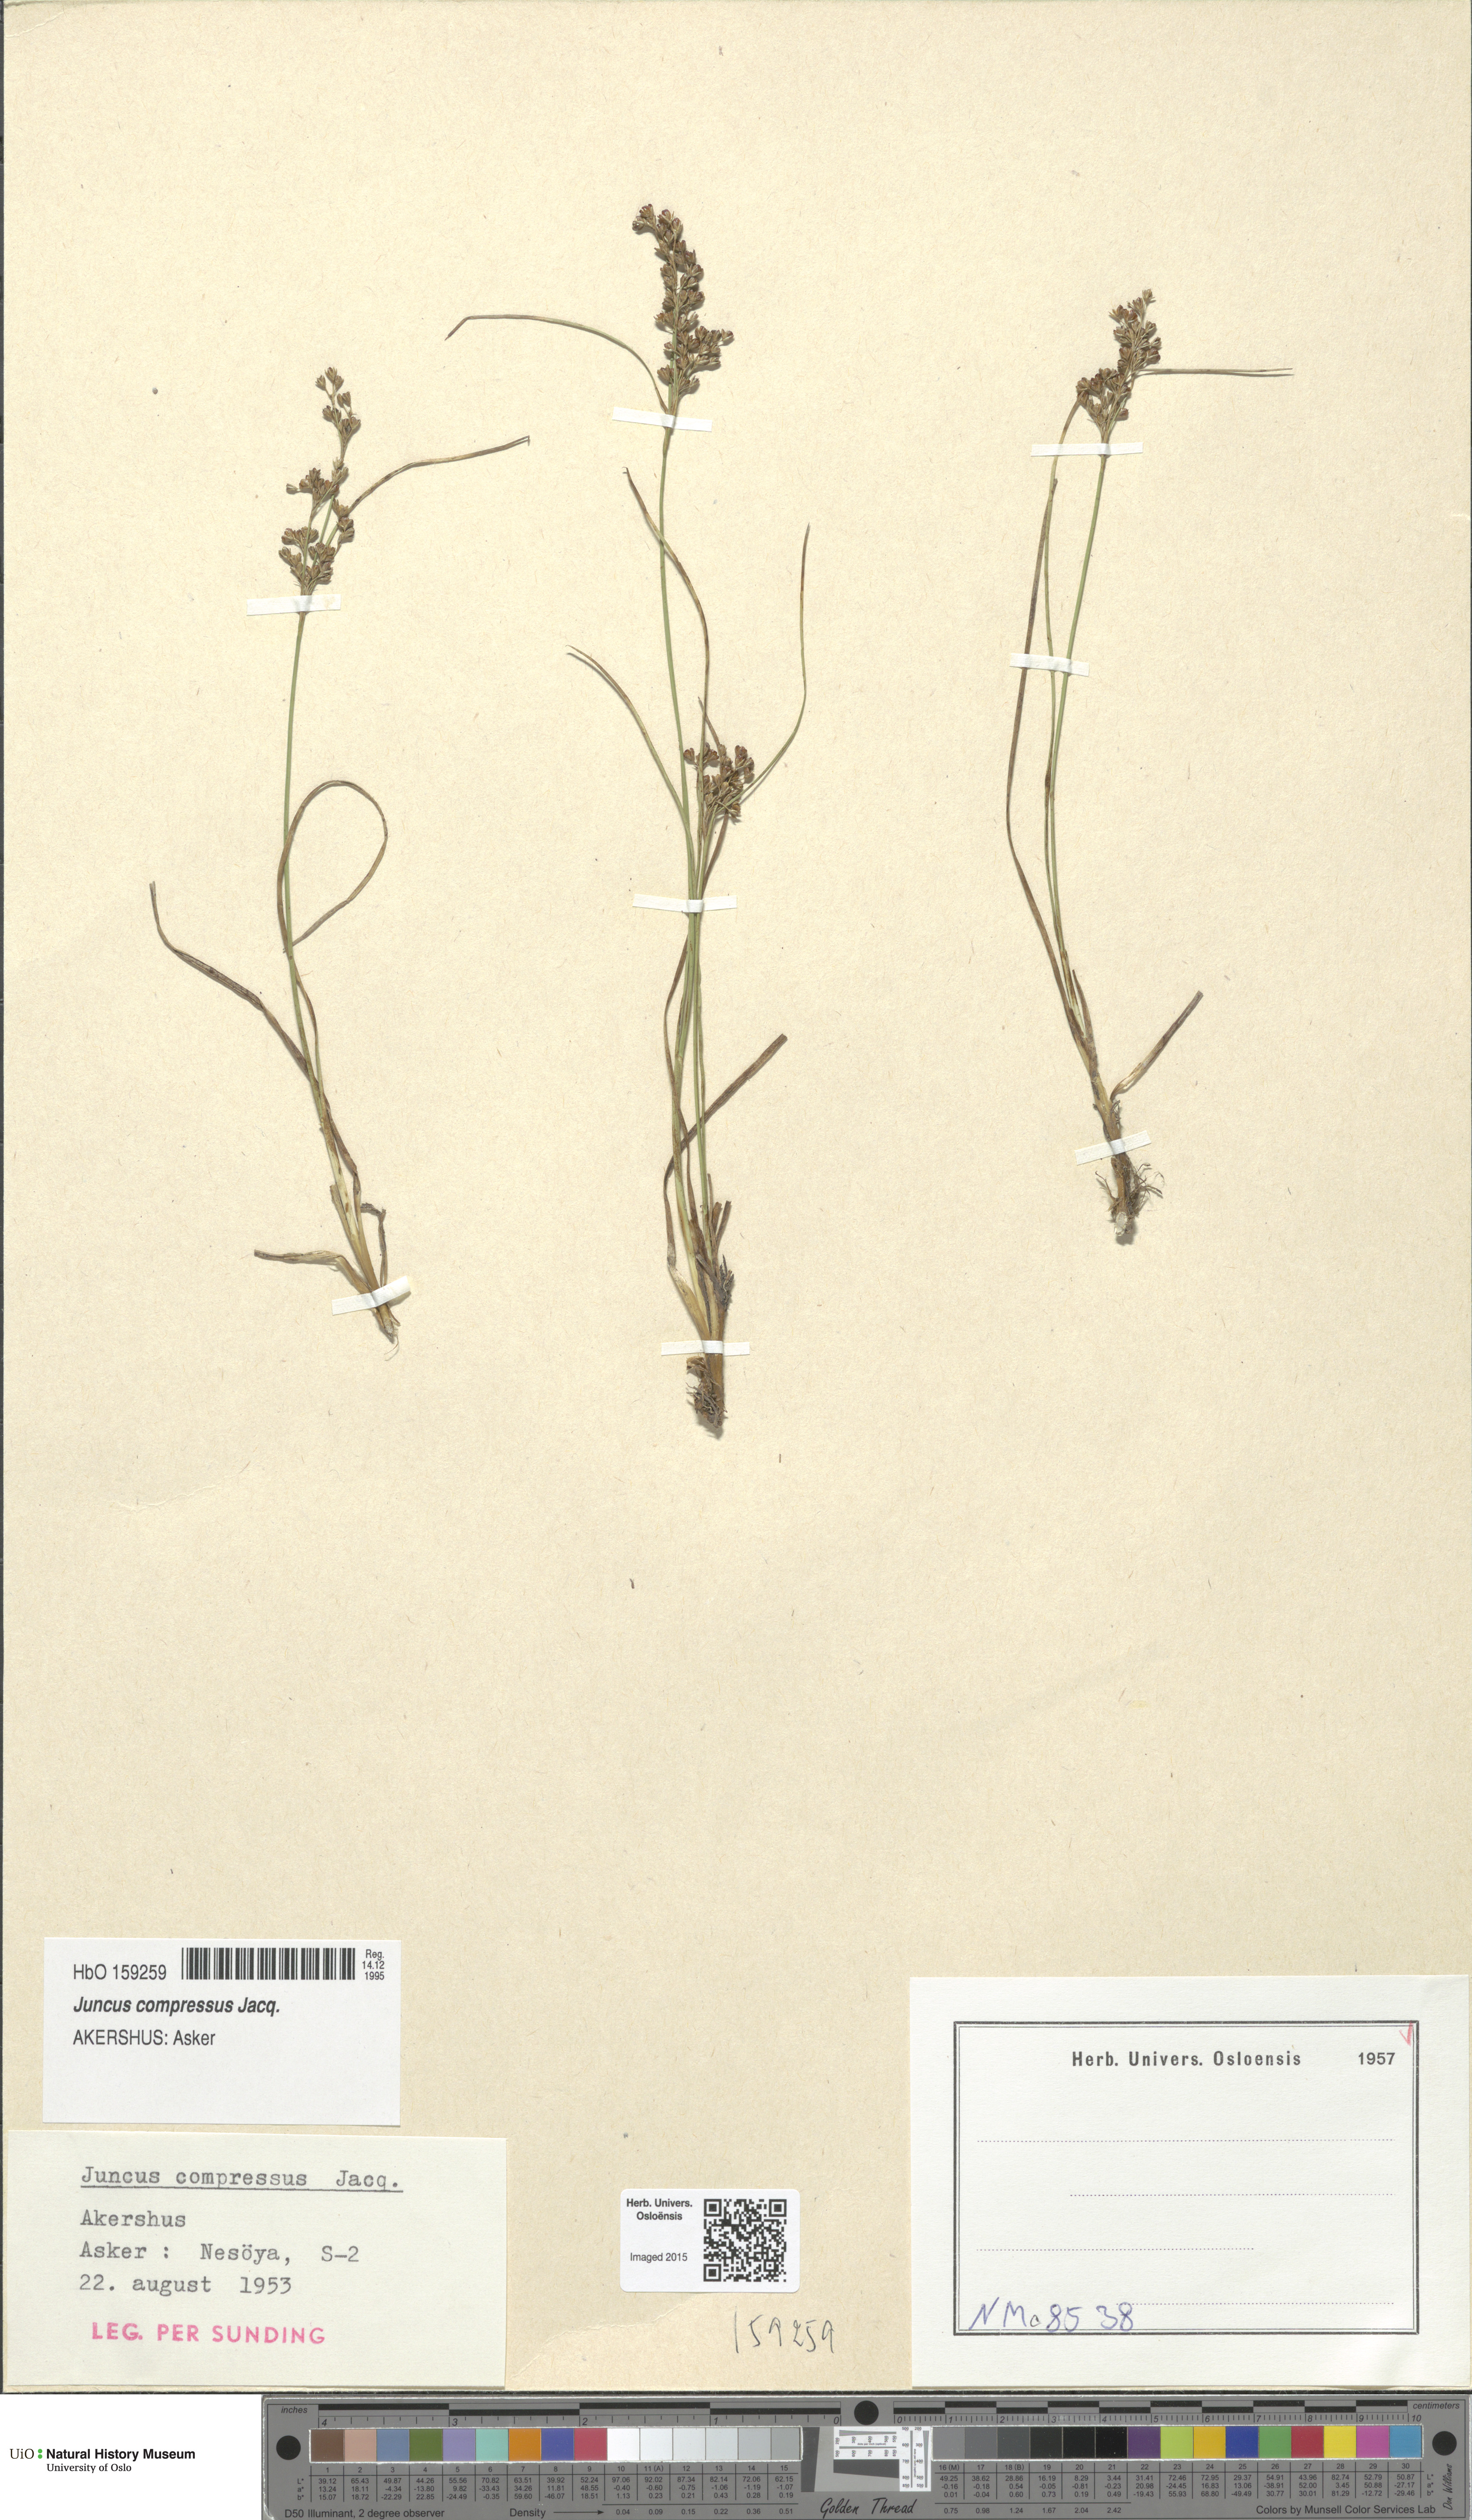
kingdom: Plantae
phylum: Tracheophyta
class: Liliopsida
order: Poales
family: Juncaceae
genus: Juncus
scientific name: Juncus compressus
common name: Round-fruited rush
